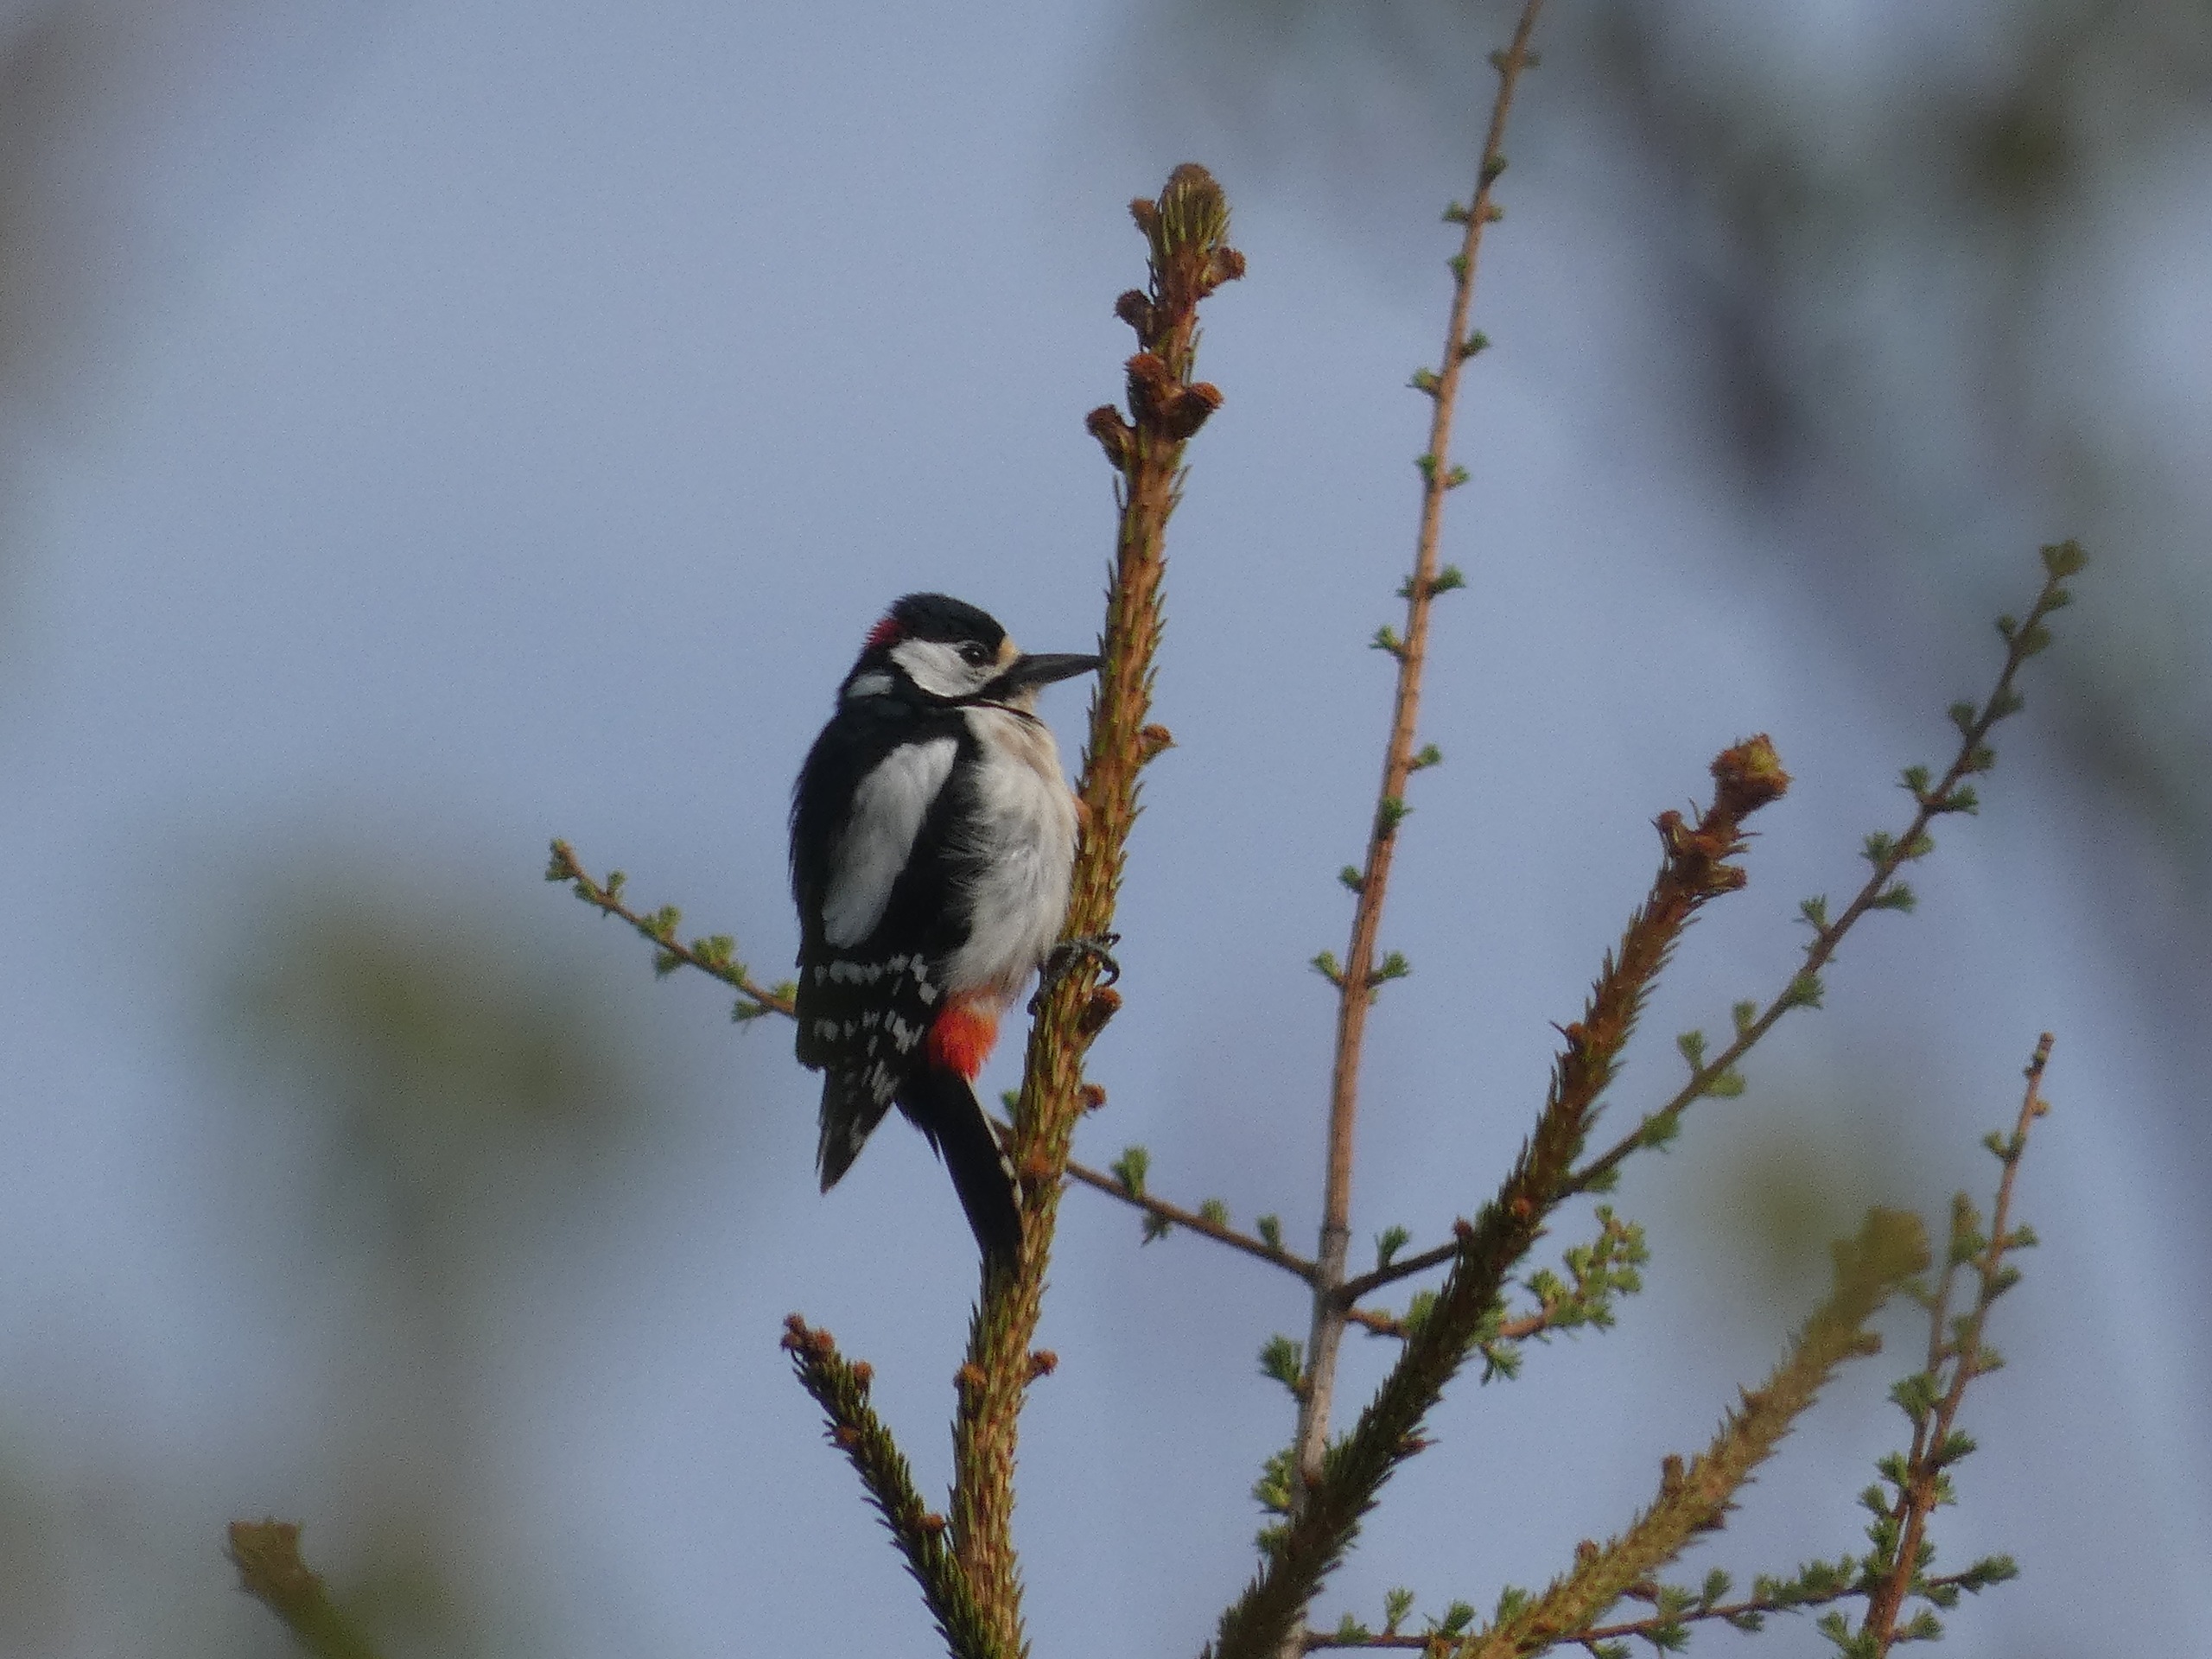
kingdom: Animalia
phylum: Chordata
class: Aves
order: Piciformes
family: Picidae
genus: Dendrocopos
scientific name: Dendrocopos major
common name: Stor flagspætte
